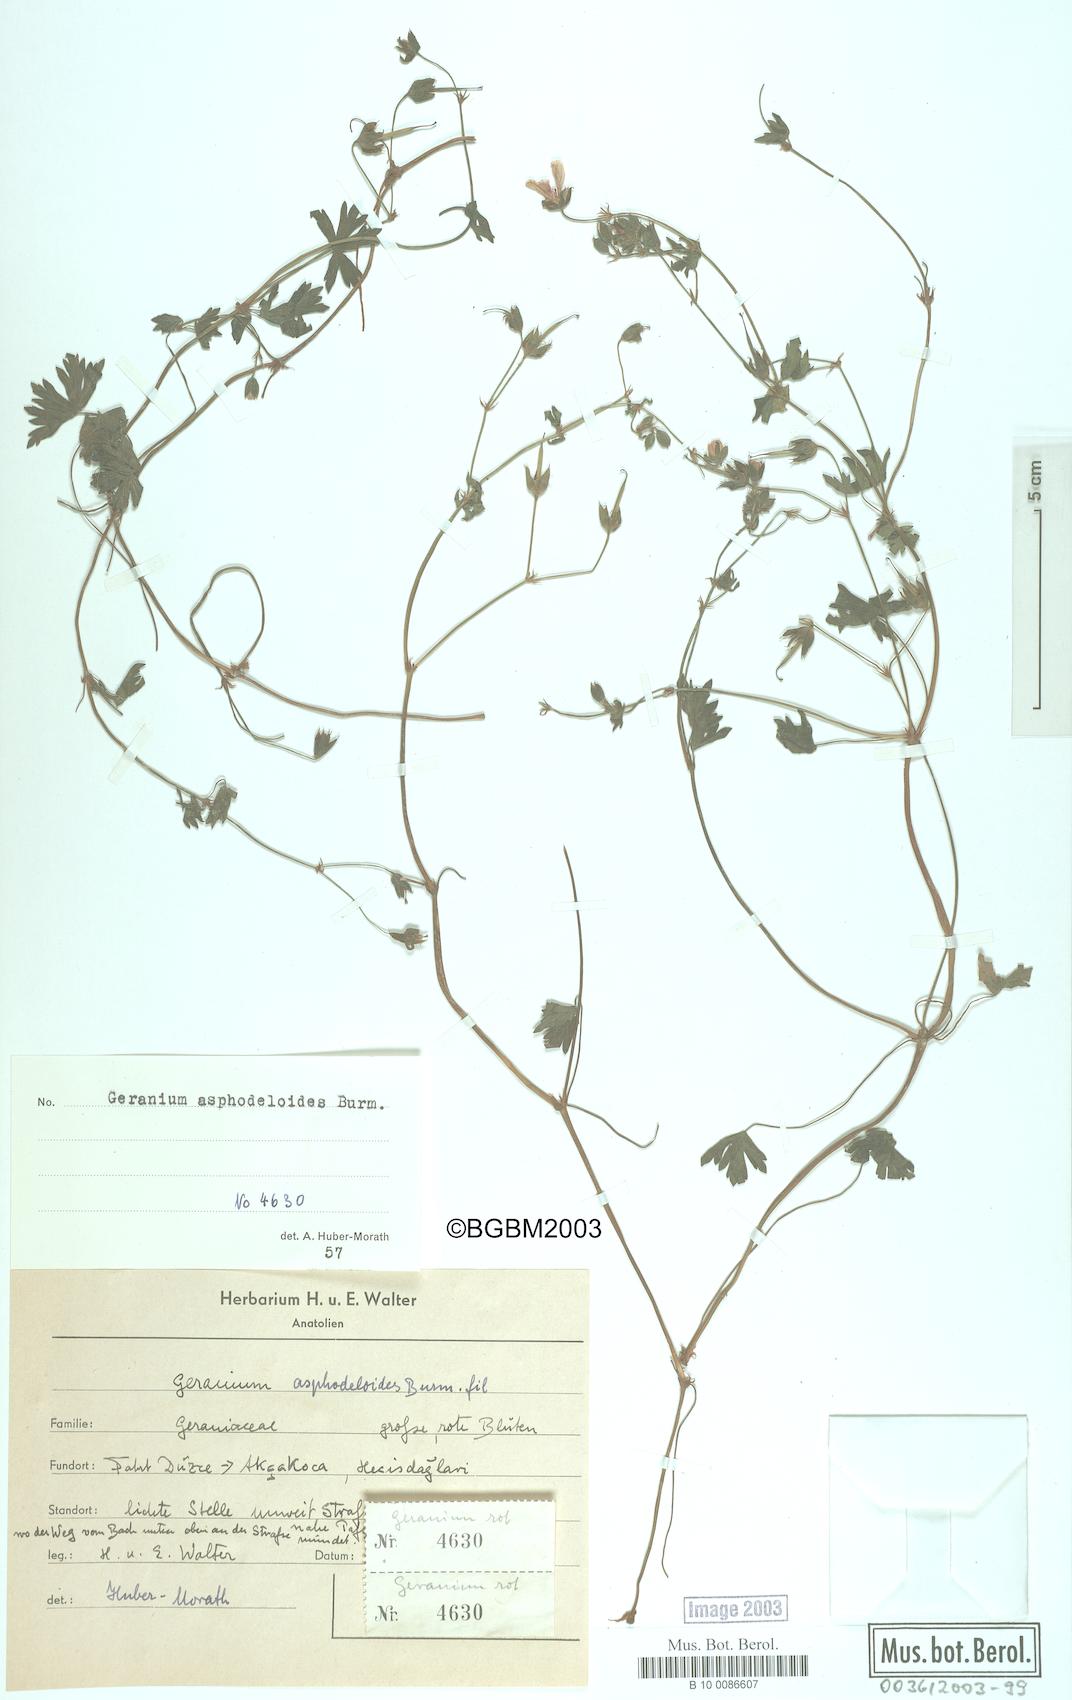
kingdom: Plantae
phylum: Tracheophyta
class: Magnoliopsida
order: Geraniales
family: Geraniaceae
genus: Geranium
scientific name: Geranium asphodeloides
